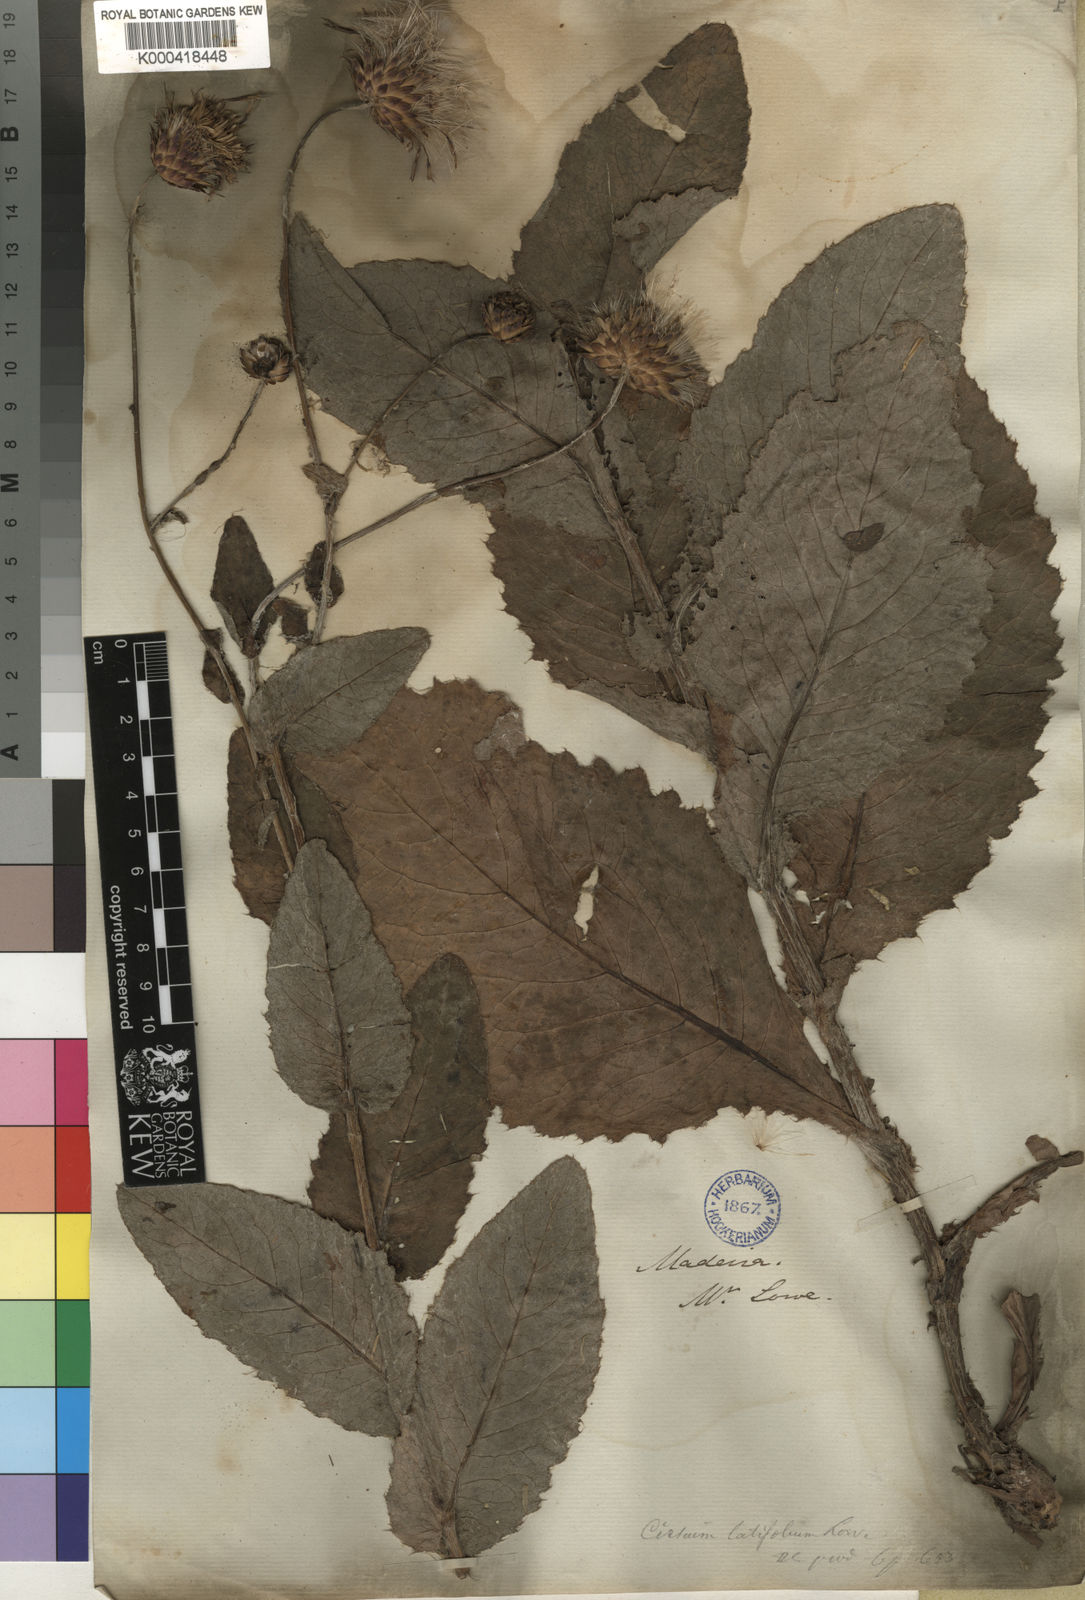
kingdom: Plantae
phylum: Tracheophyta
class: Magnoliopsida
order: Asterales
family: Asteraceae
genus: Cirsium
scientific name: Cirsium latifolium
